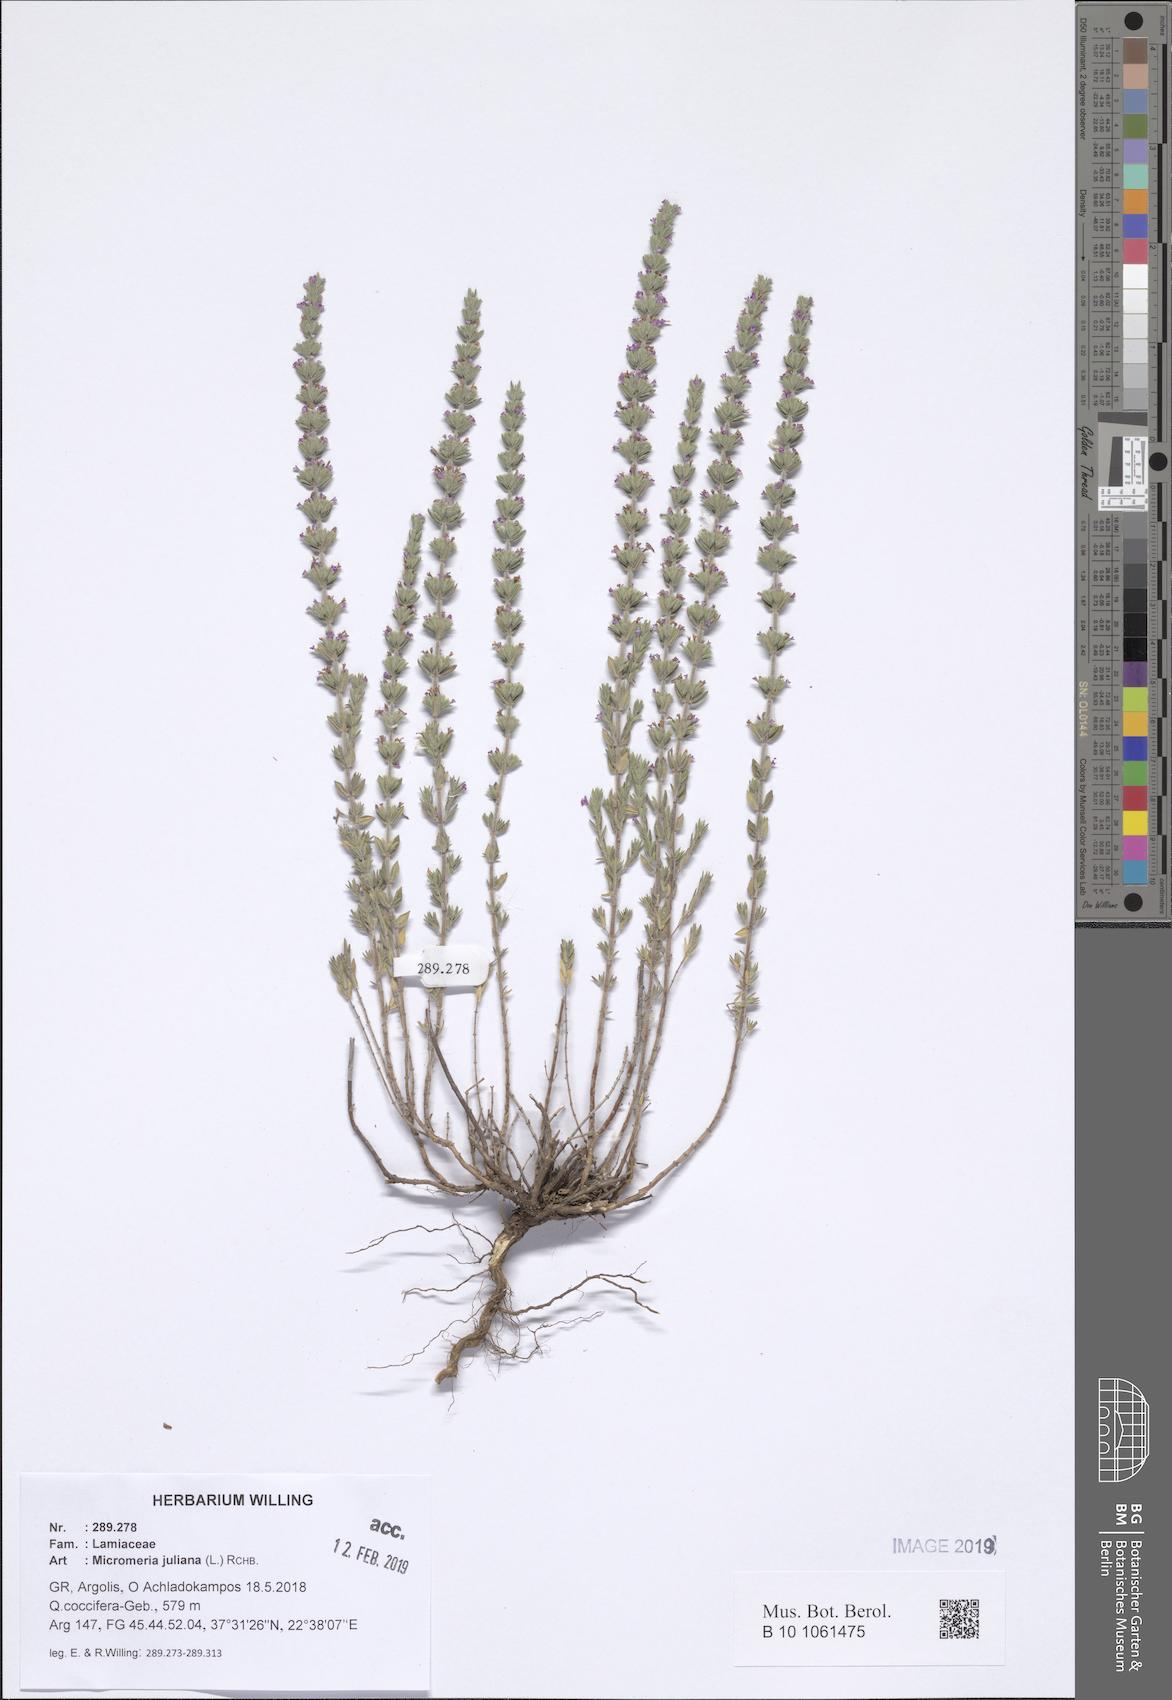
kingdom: Plantae
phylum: Tracheophyta
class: Magnoliopsida
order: Lamiales
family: Lamiaceae
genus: Micromeria
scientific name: Micromeria juliana
